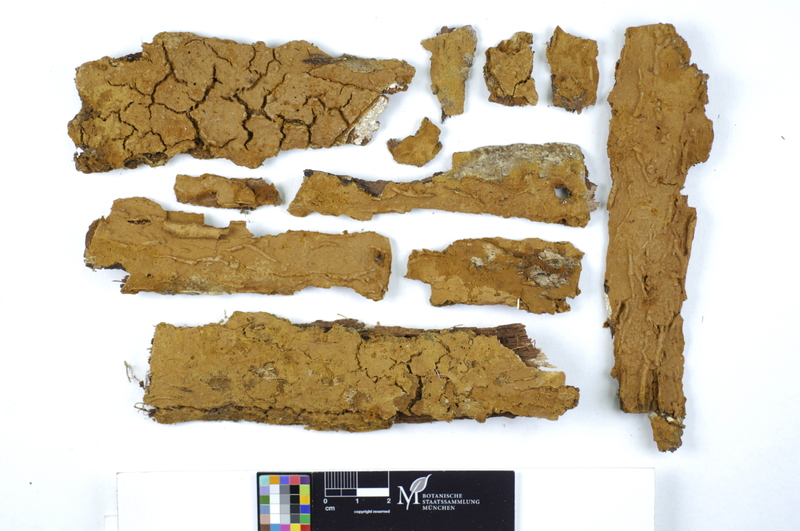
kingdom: Plantae
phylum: Tracheophyta
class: Magnoliopsida
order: Fagales
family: Betulaceae
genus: Corylus
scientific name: Corylus
